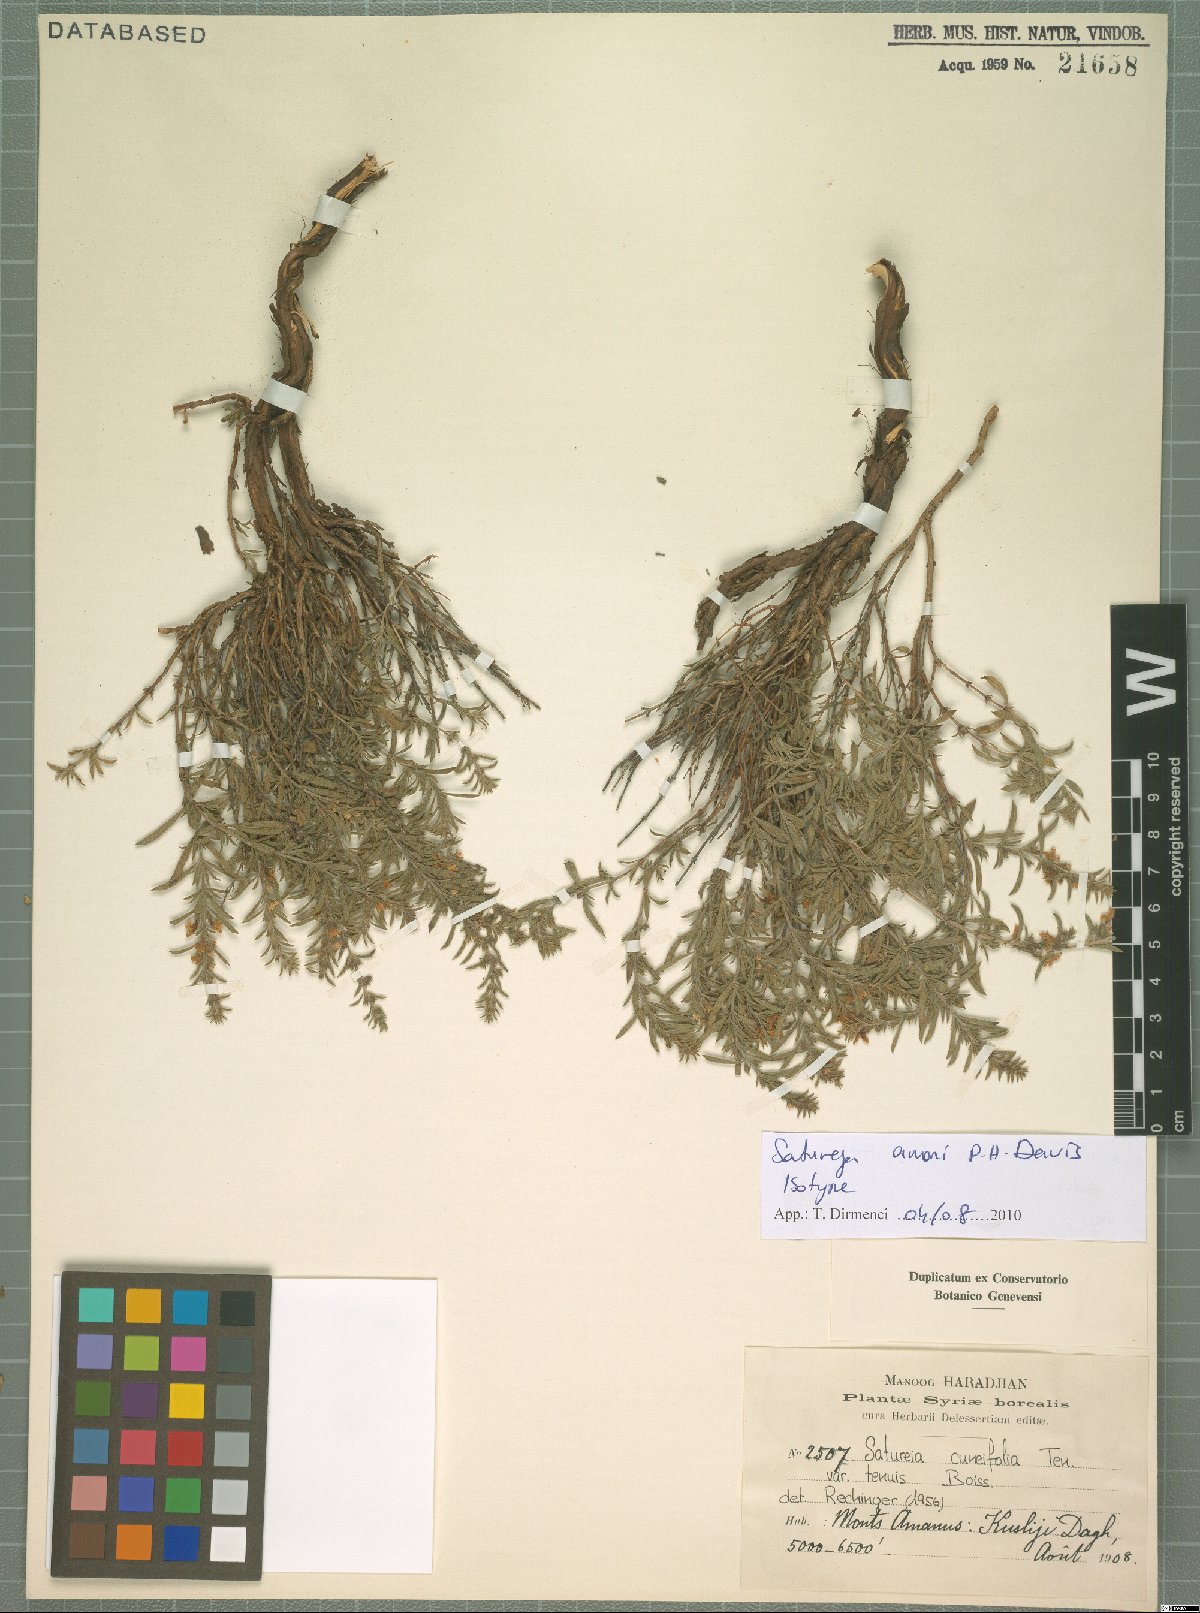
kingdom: Plantae
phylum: Tracheophyta
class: Magnoliopsida
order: Lamiales
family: Lamiaceae
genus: Satureja
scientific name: Satureja amani
